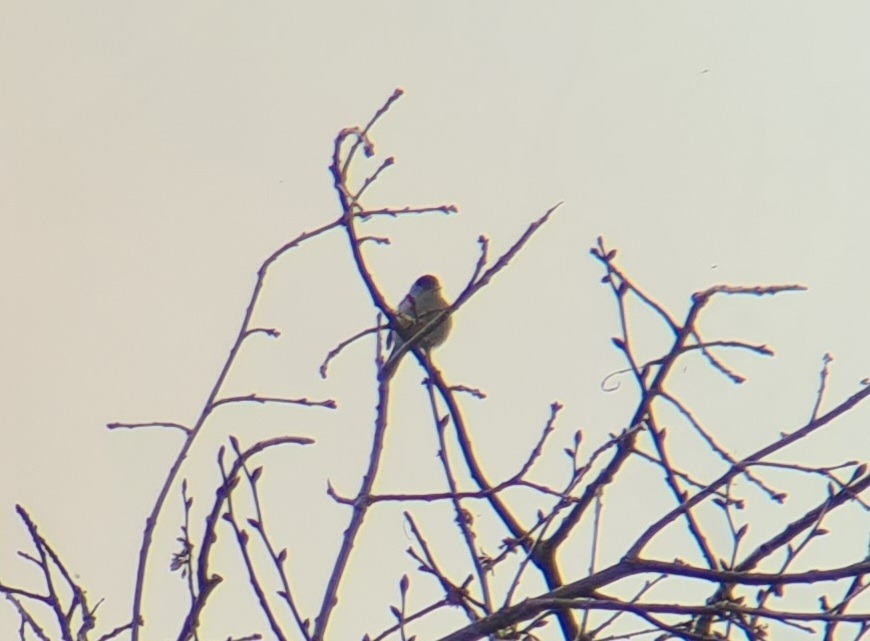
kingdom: Animalia
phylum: Chordata
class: Aves
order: Passeriformes
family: Sylviidae
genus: Sylvia
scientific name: Sylvia atricapilla
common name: Munk
